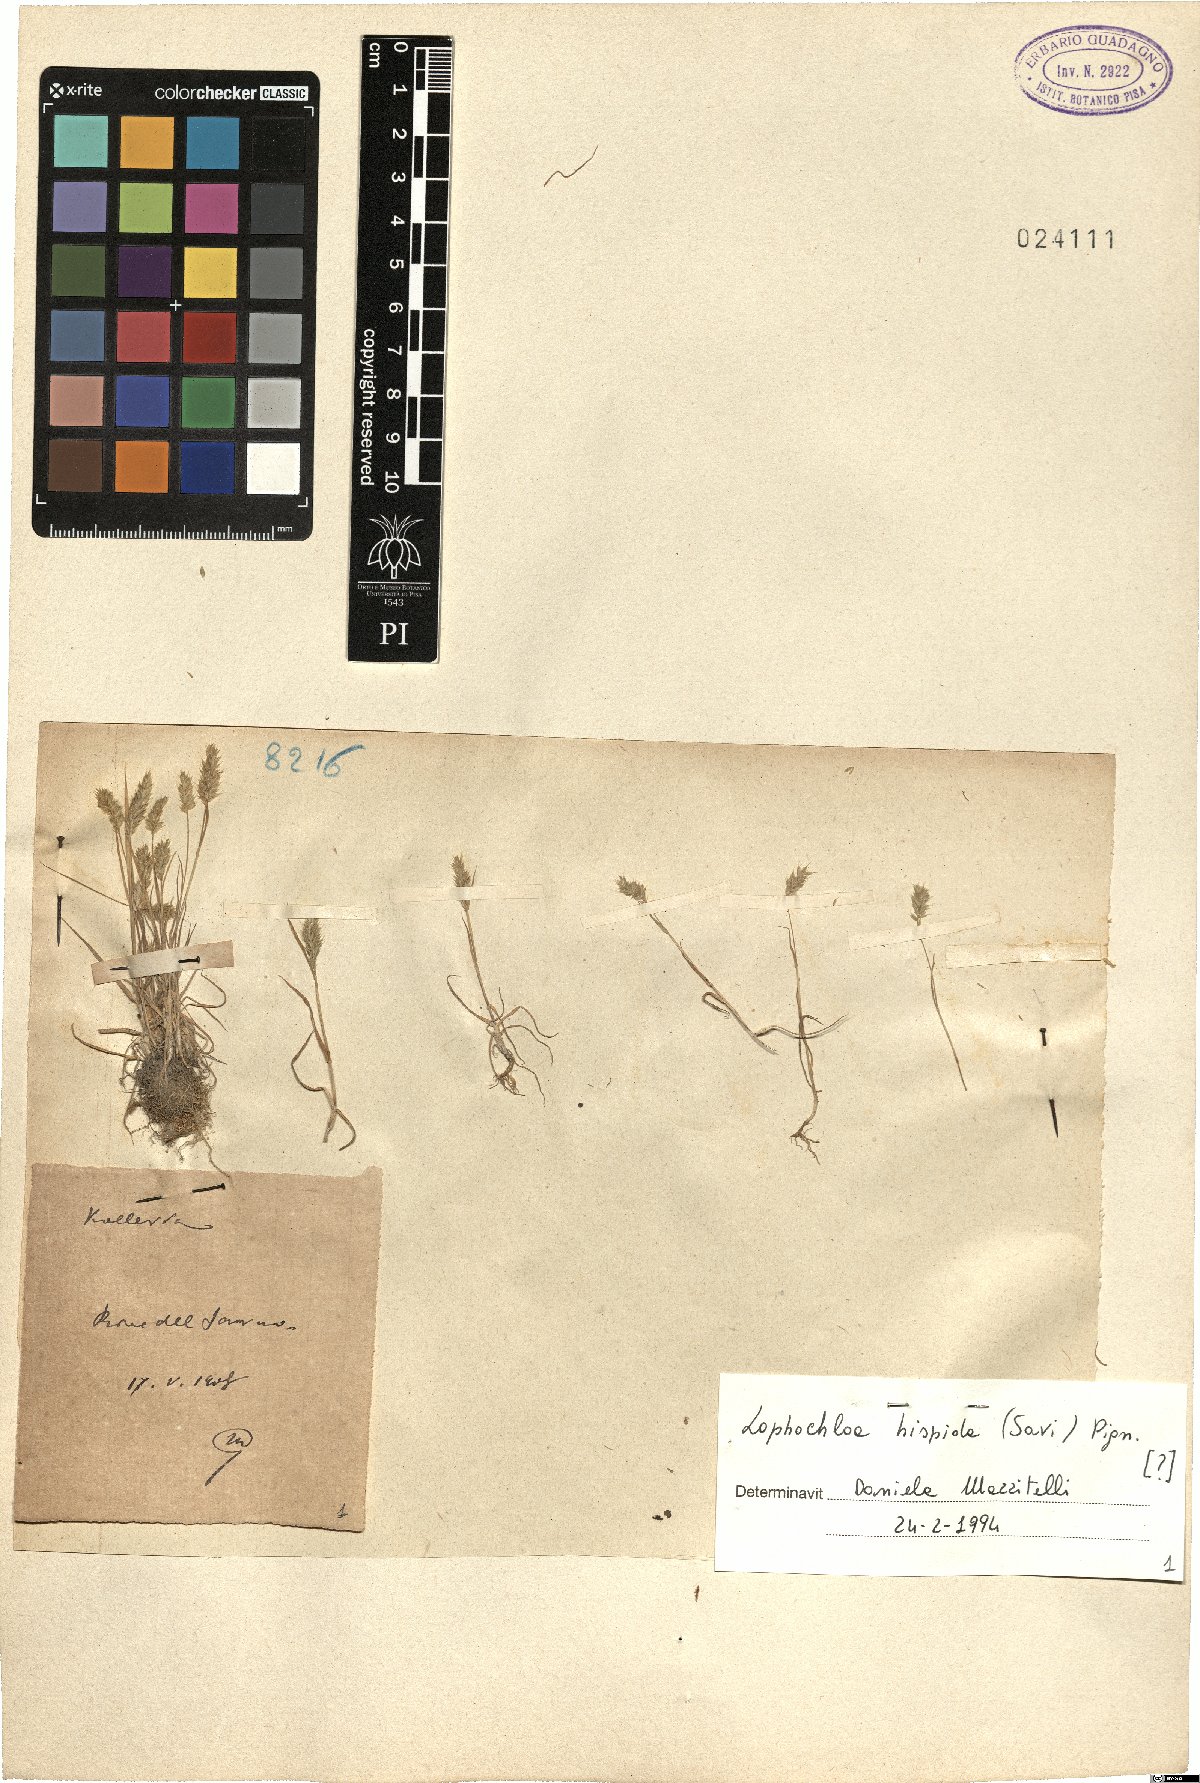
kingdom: Plantae
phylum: Tracheophyta
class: Liliopsida
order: Poales
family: Poaceae
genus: Rostraria
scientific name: Rostraria hispida
